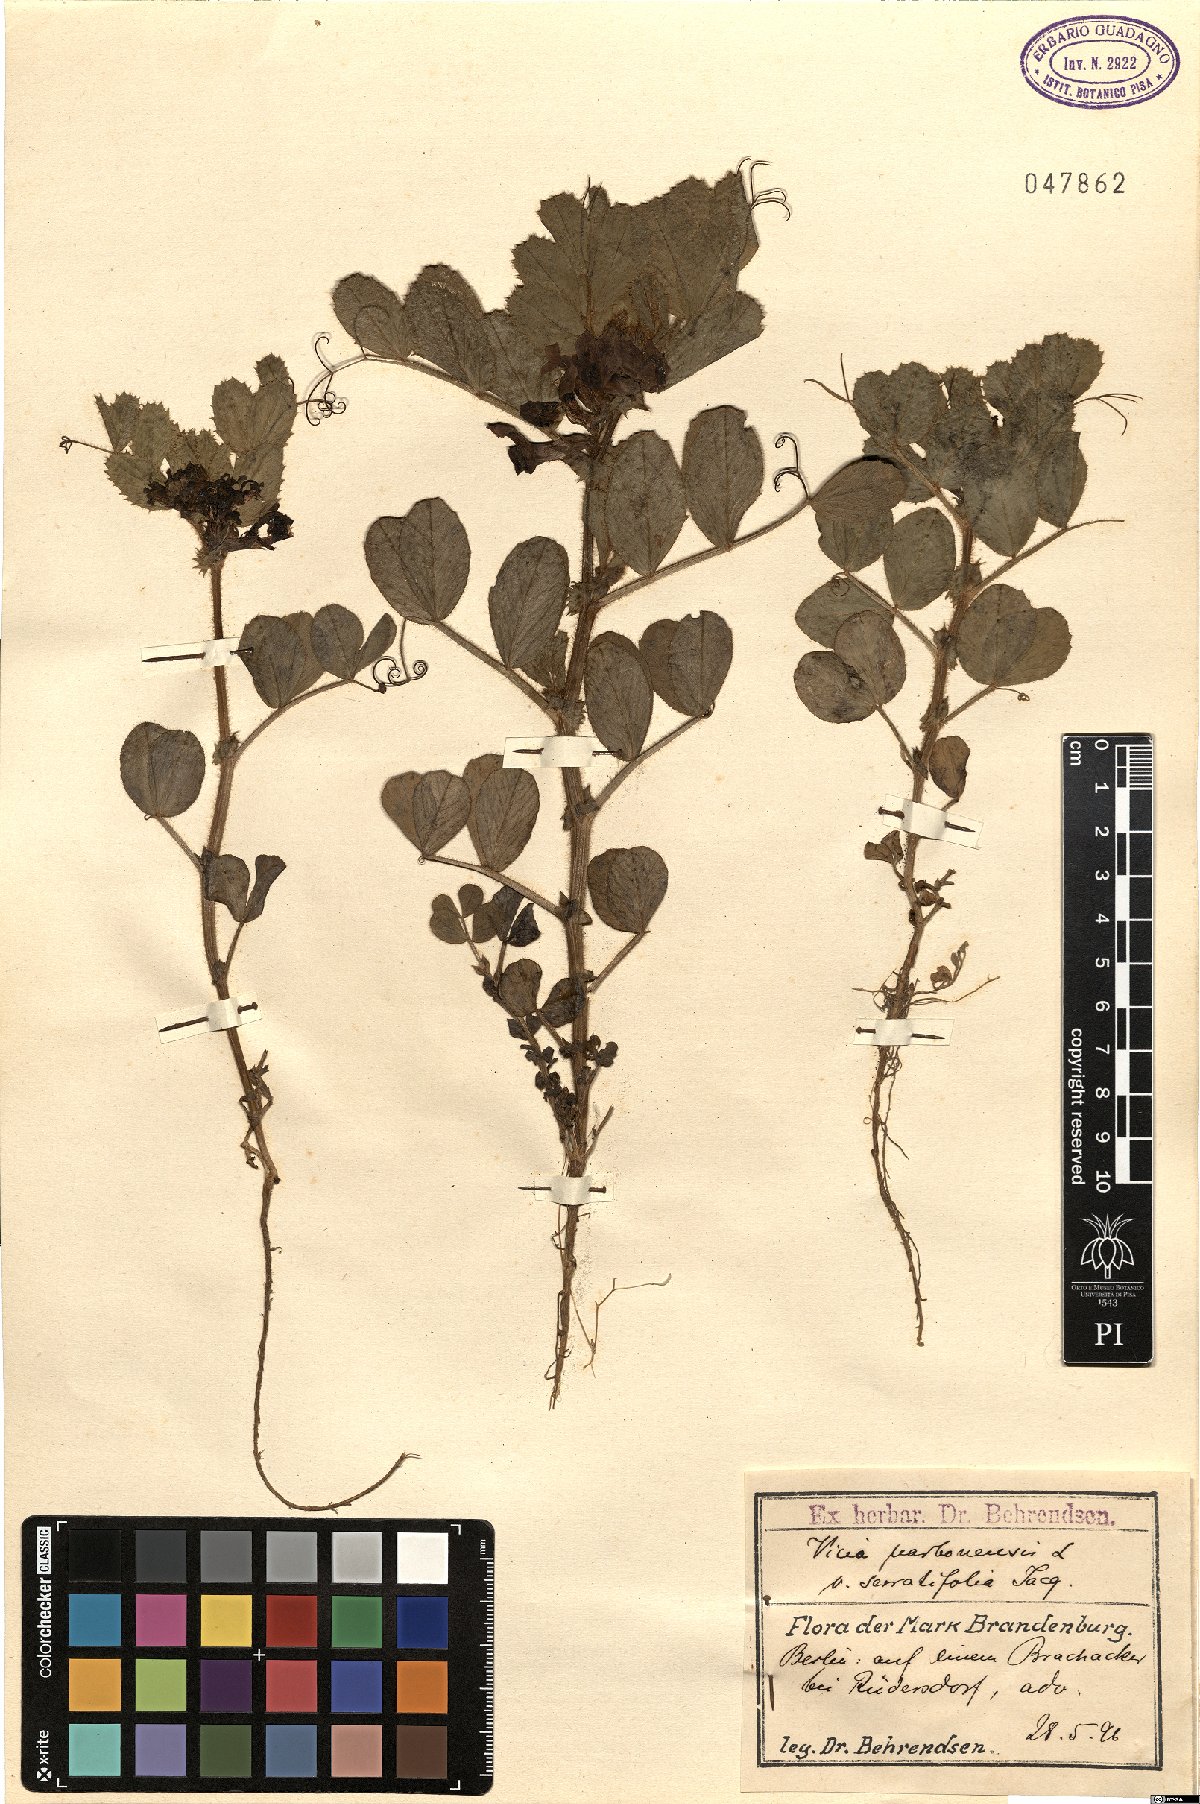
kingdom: Plantae
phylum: Tracheophyta
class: Magnoliopsida
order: Fabales
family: Fabaceae
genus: Vicia
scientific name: Vicia serratifolia
